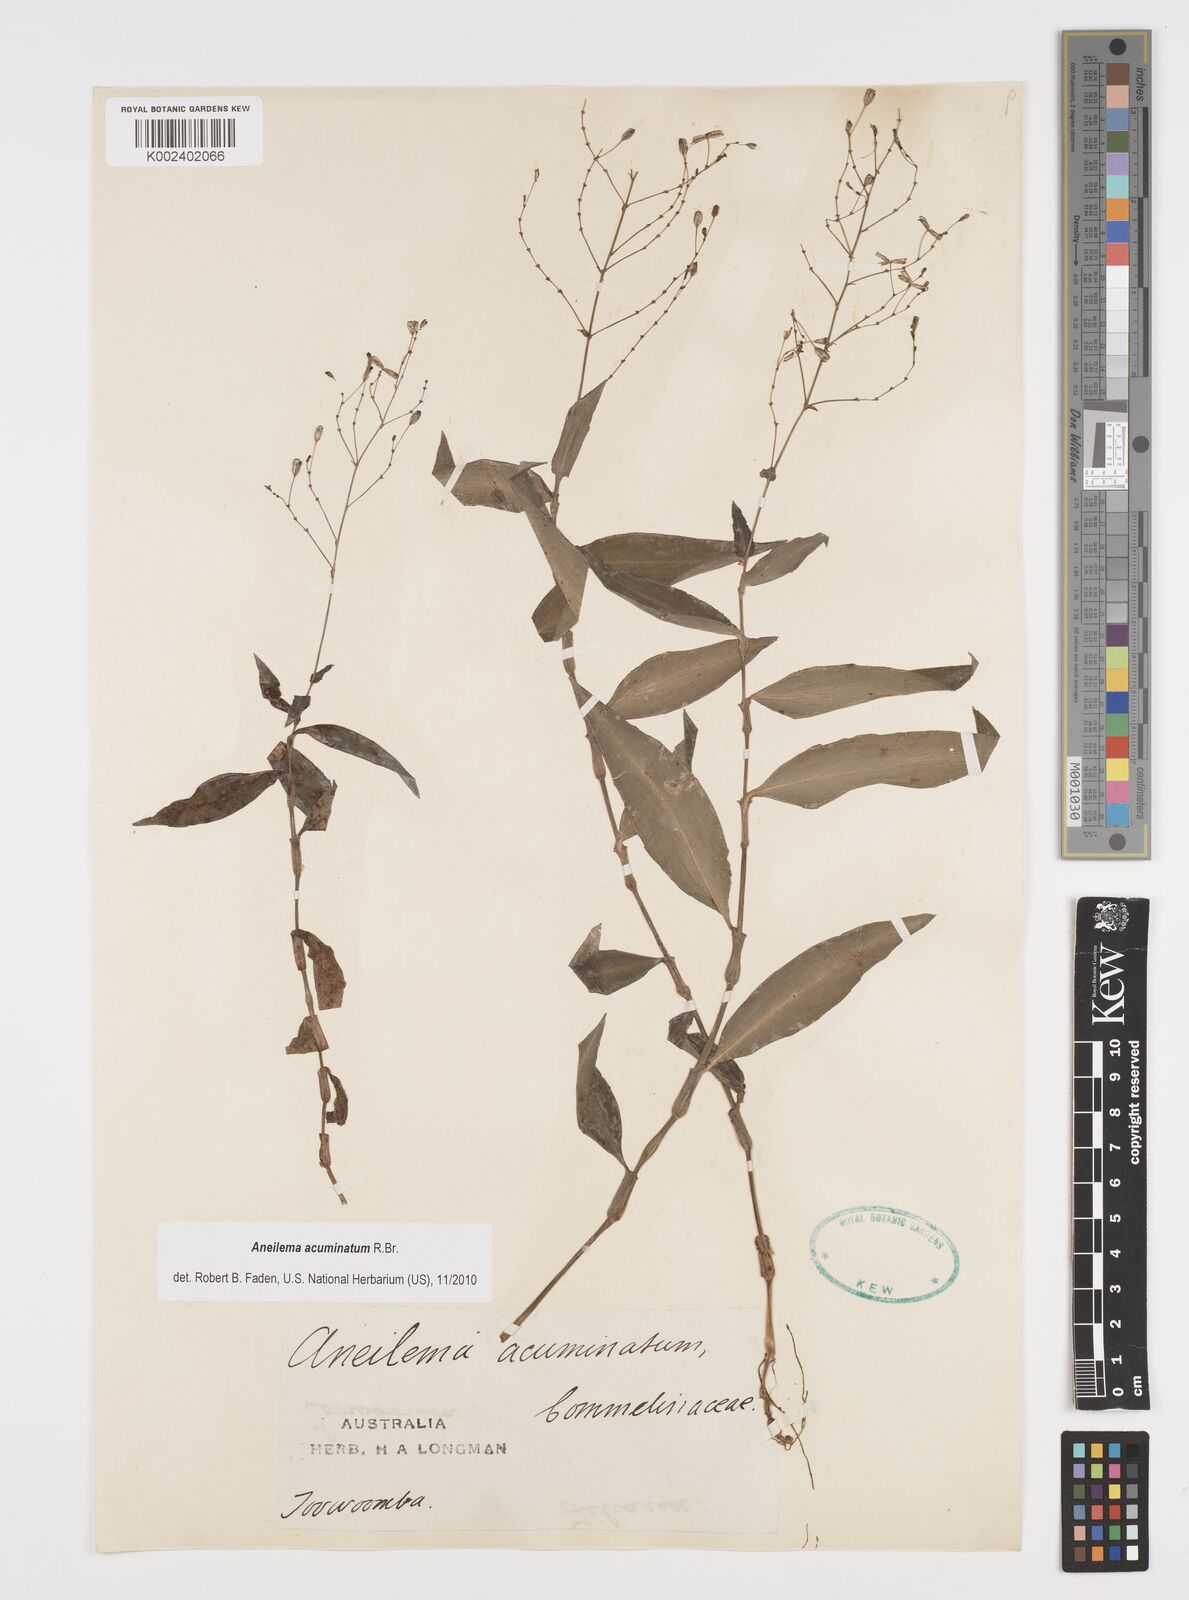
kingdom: Plantae
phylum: Tracheophyta
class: Liliopsida
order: Commelinales
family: Commelinaceae
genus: Aneilema
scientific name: Aneilema acuminatum
